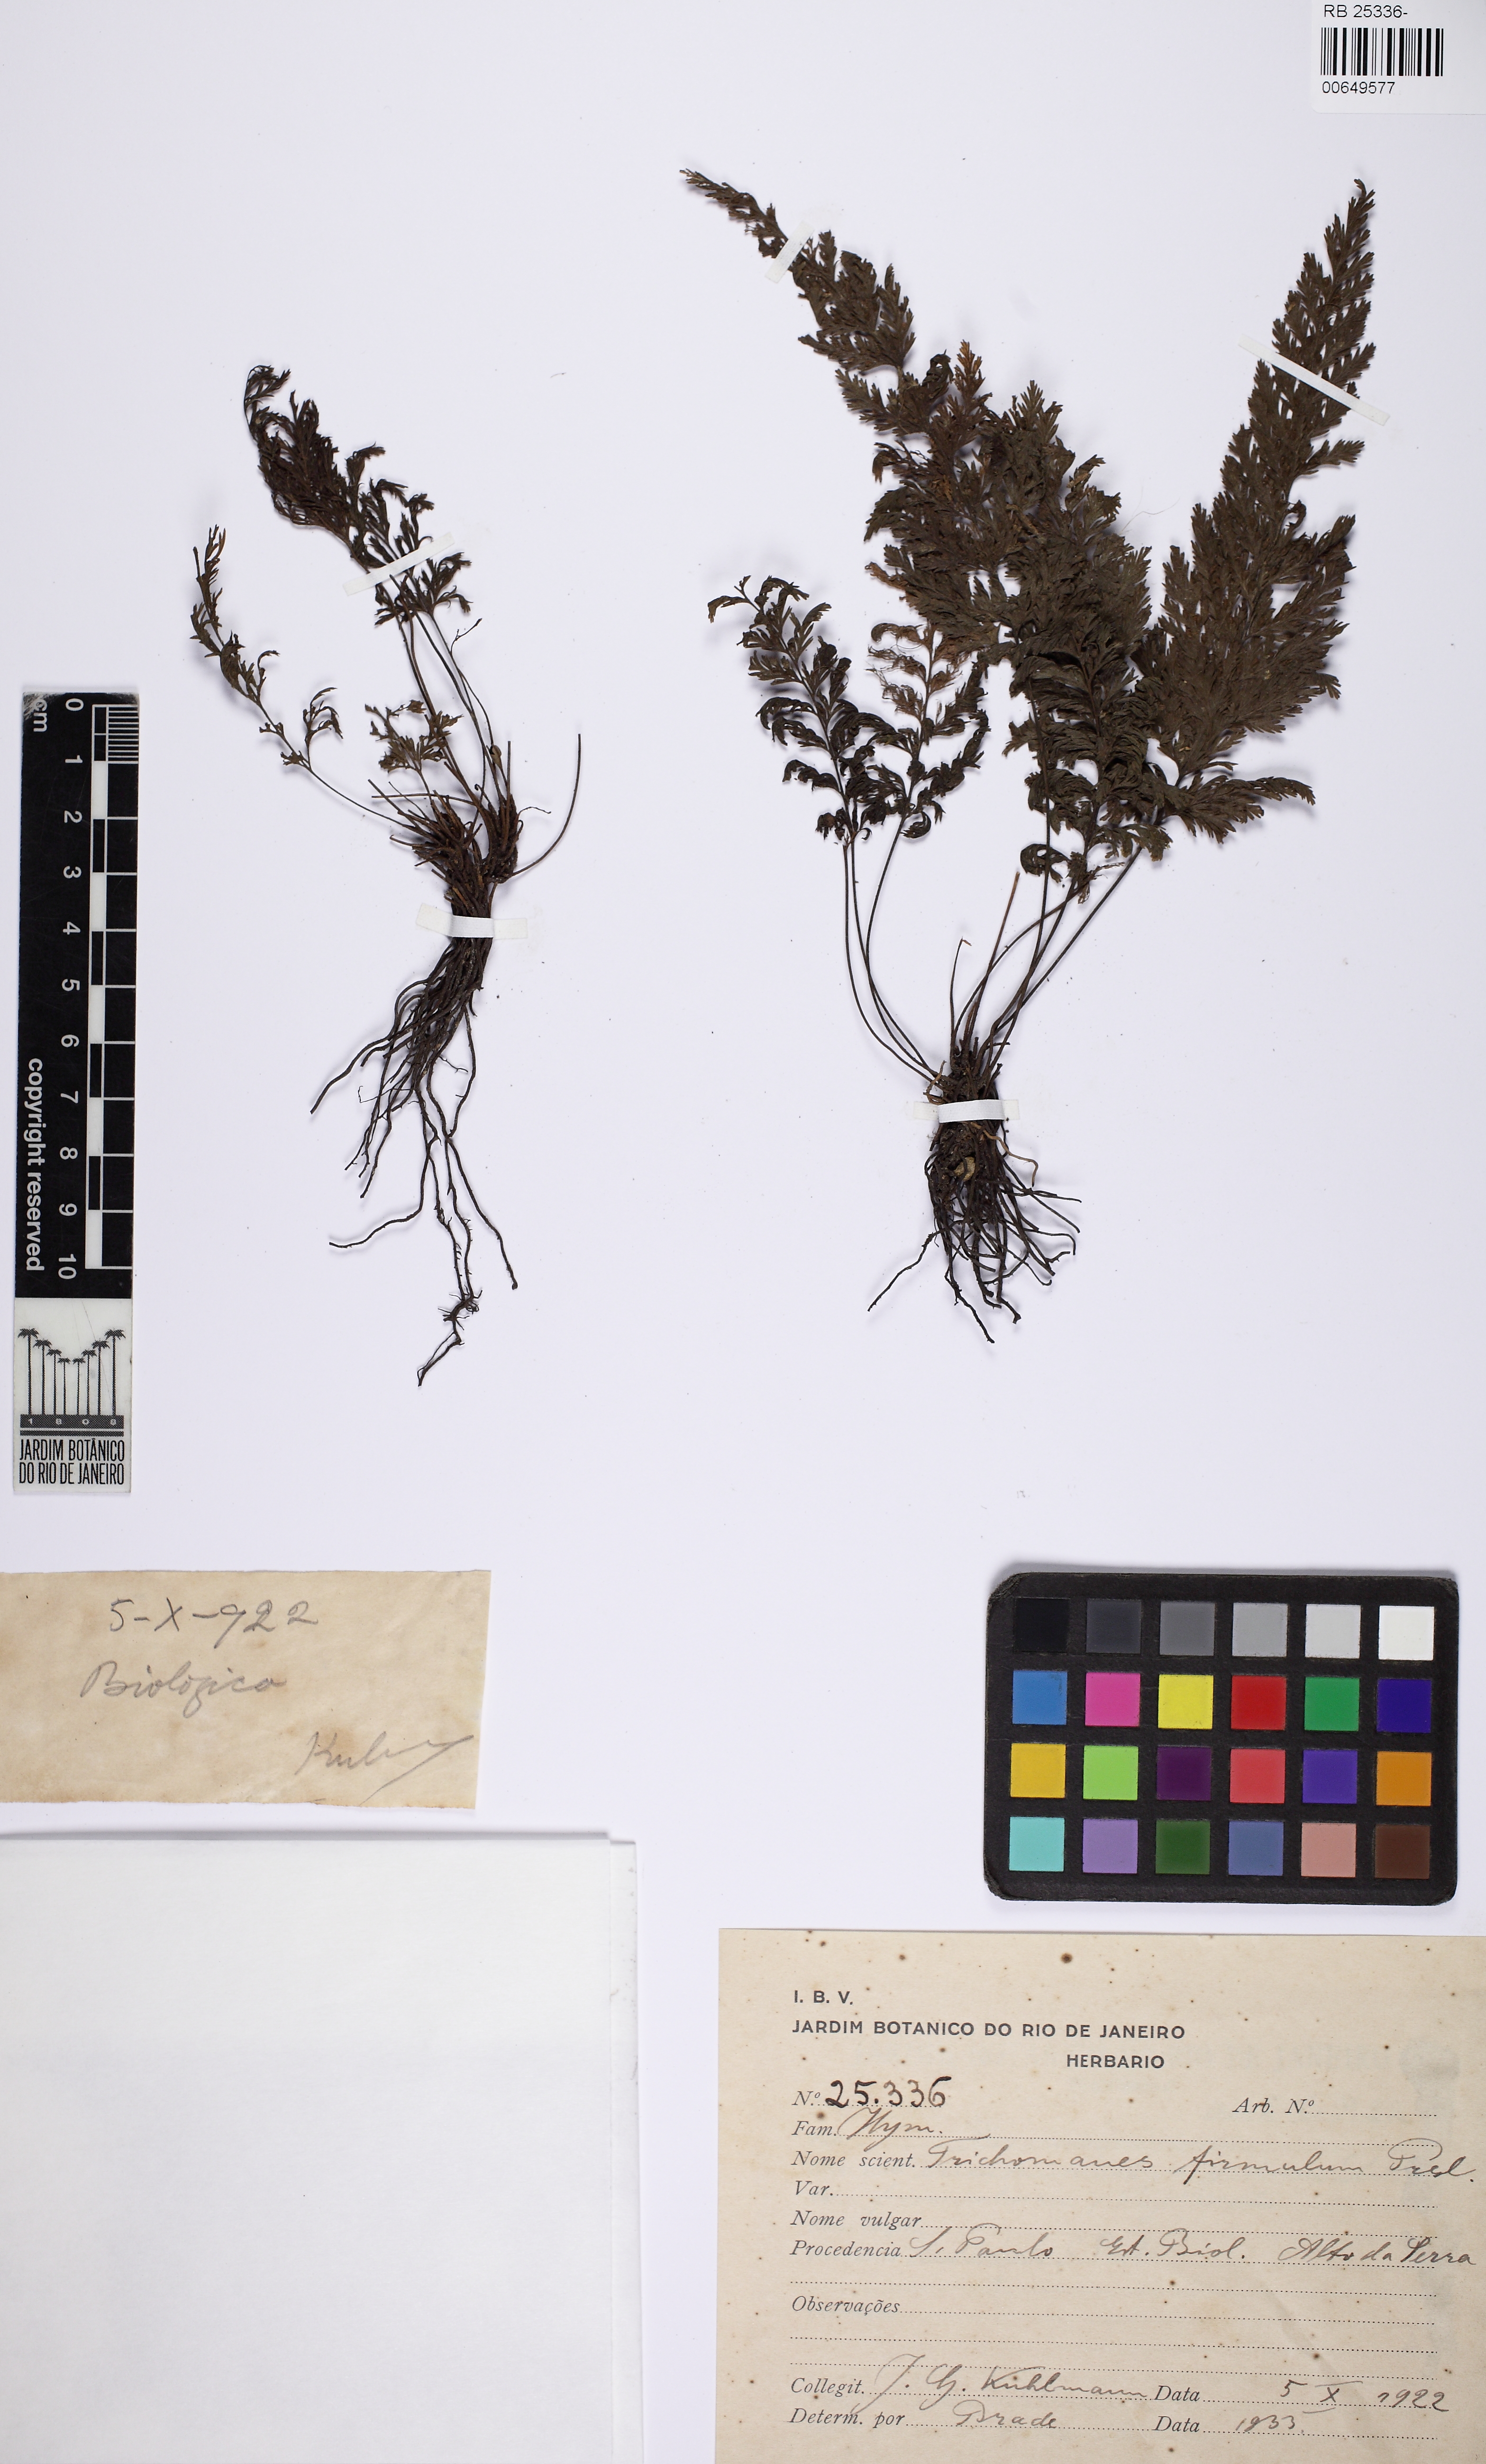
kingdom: Plantae
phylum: Tracheophyta
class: Polypodiopsida
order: Hymenophyllales
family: Hymenophyllaceae
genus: Abrodictyum
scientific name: Abrodictyum rigidum
